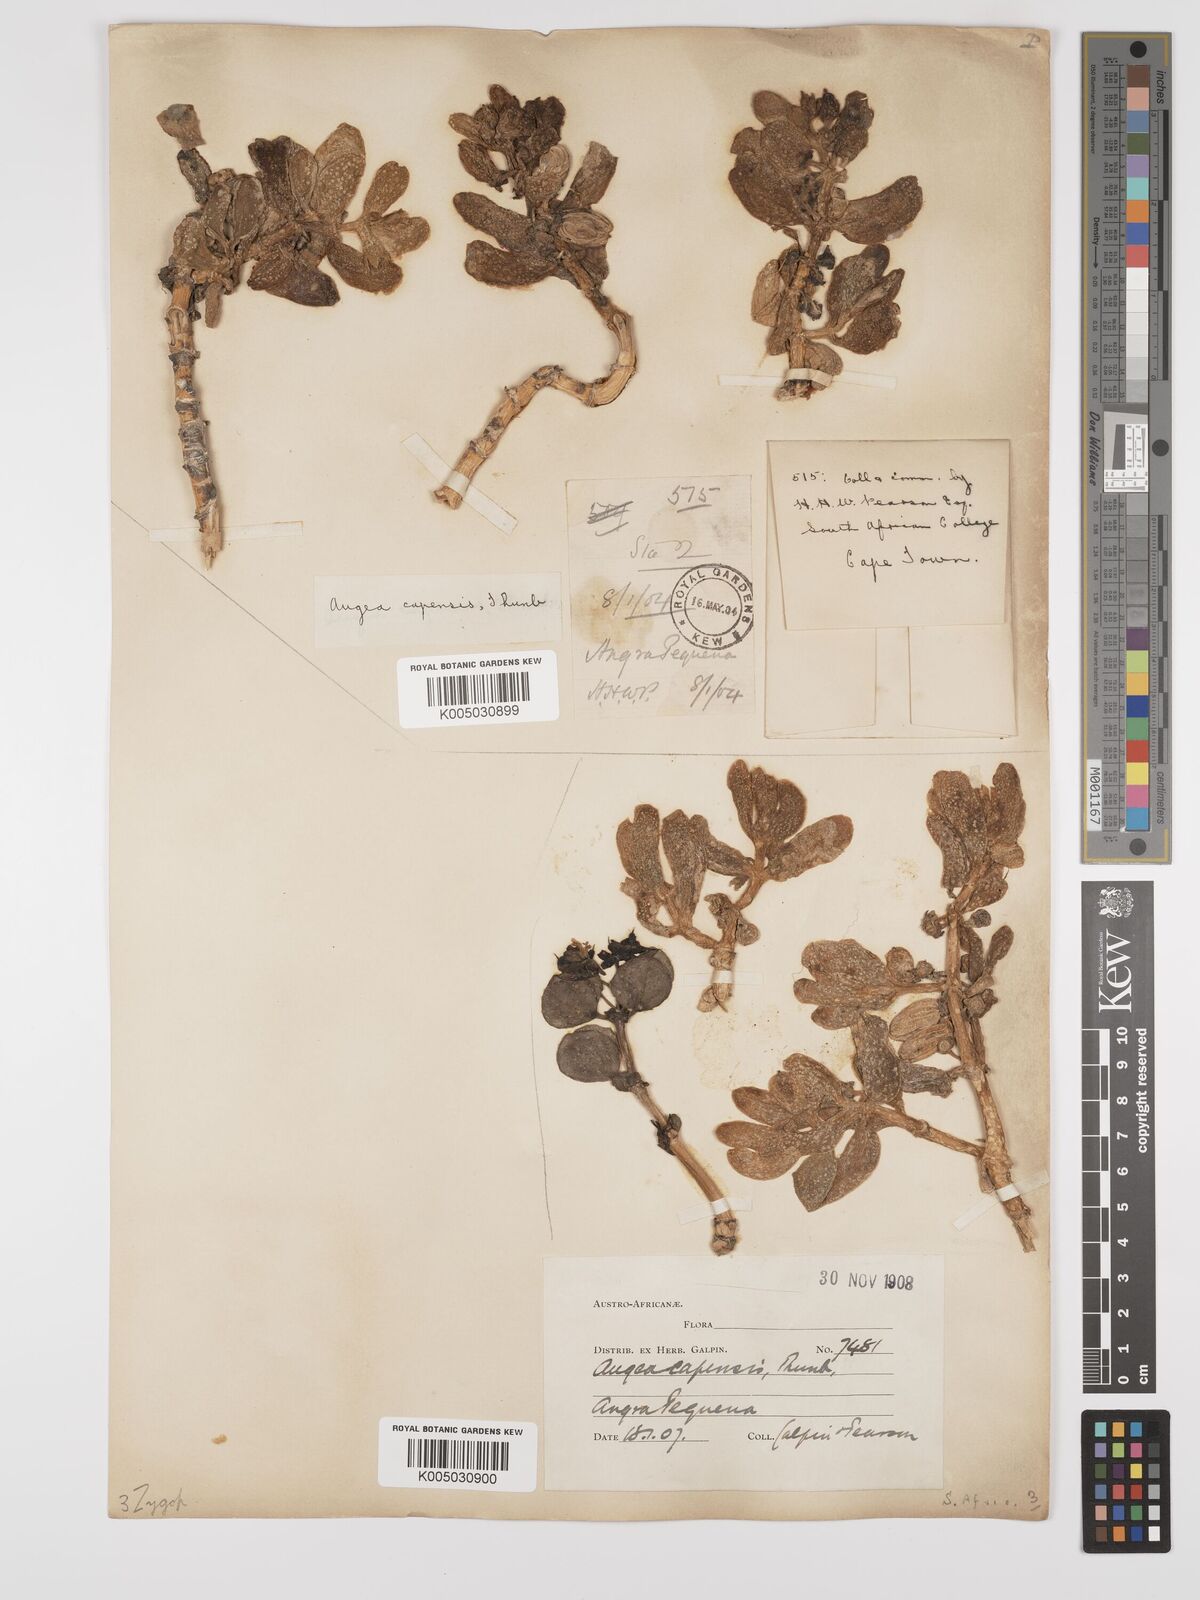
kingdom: Plantae
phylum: Tracheophyta
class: Magnoliopsida
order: Zygophyllales
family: Zygophyllaceae
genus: Augea
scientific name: Augea capensis
